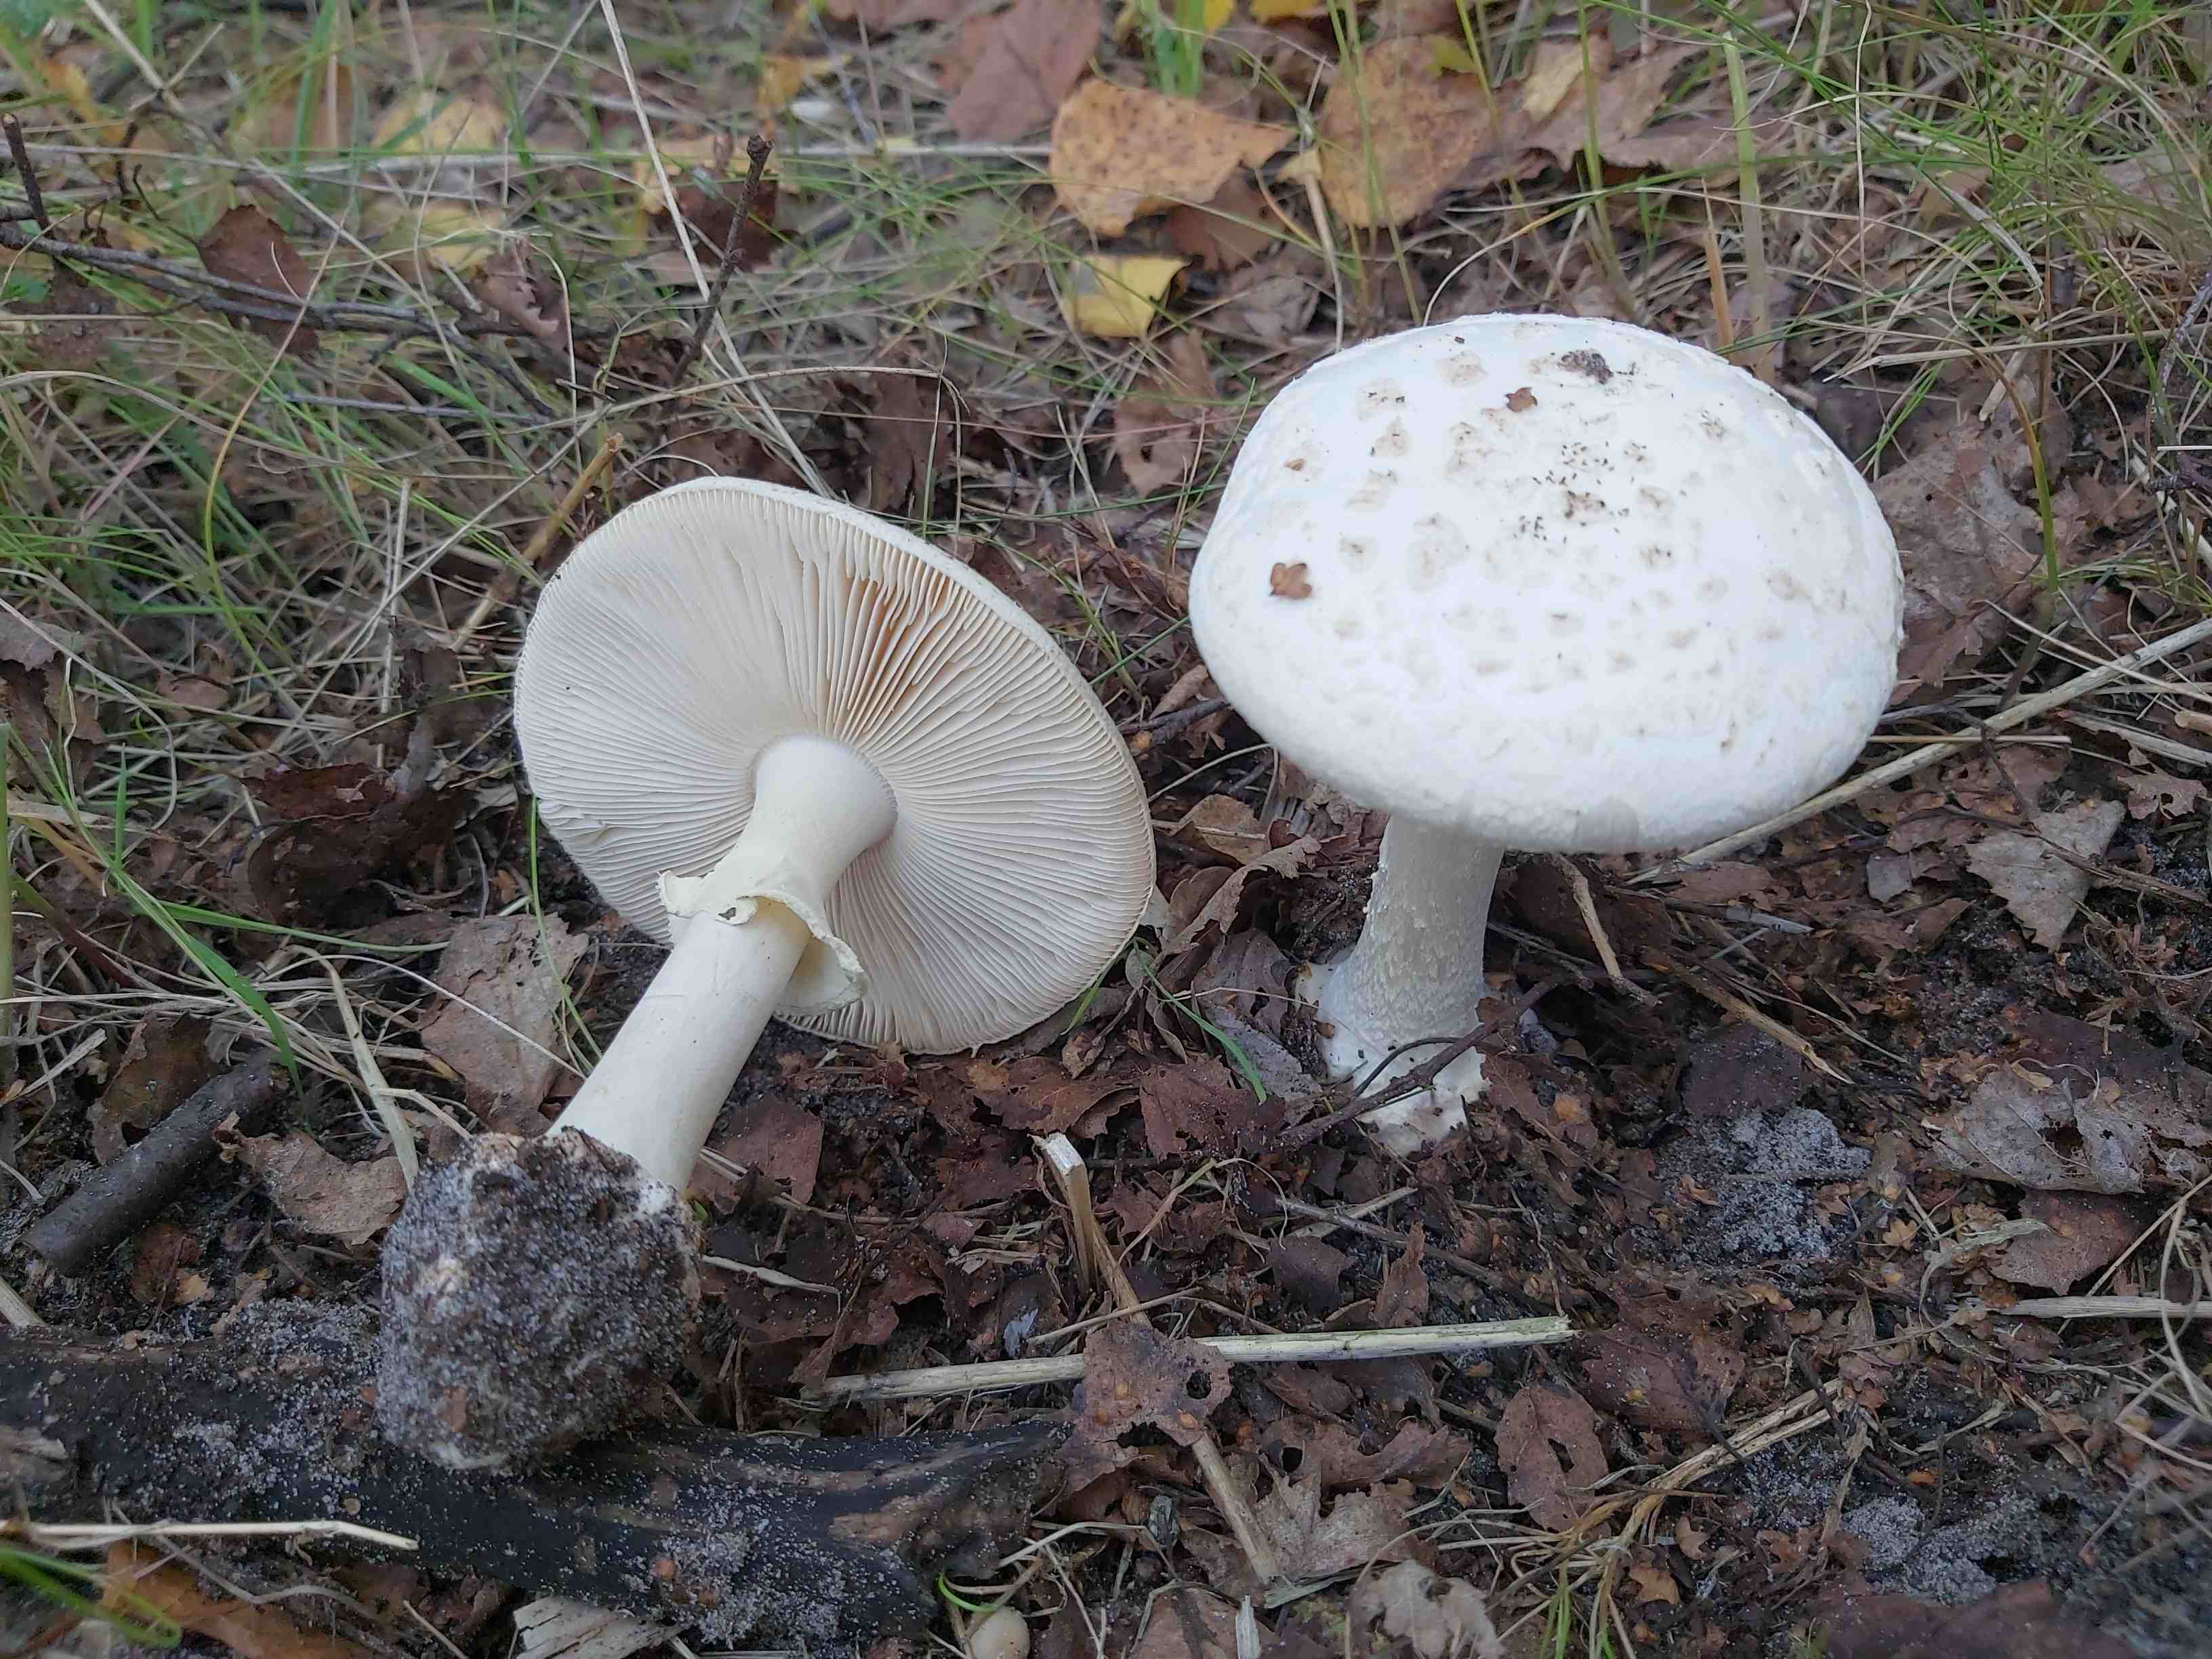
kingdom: Fungi
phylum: Basidiomycota
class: Agaricomycetes
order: Agaricales
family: Amanitaceae
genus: Amanita
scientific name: Amanita citrina
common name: False death-cap
